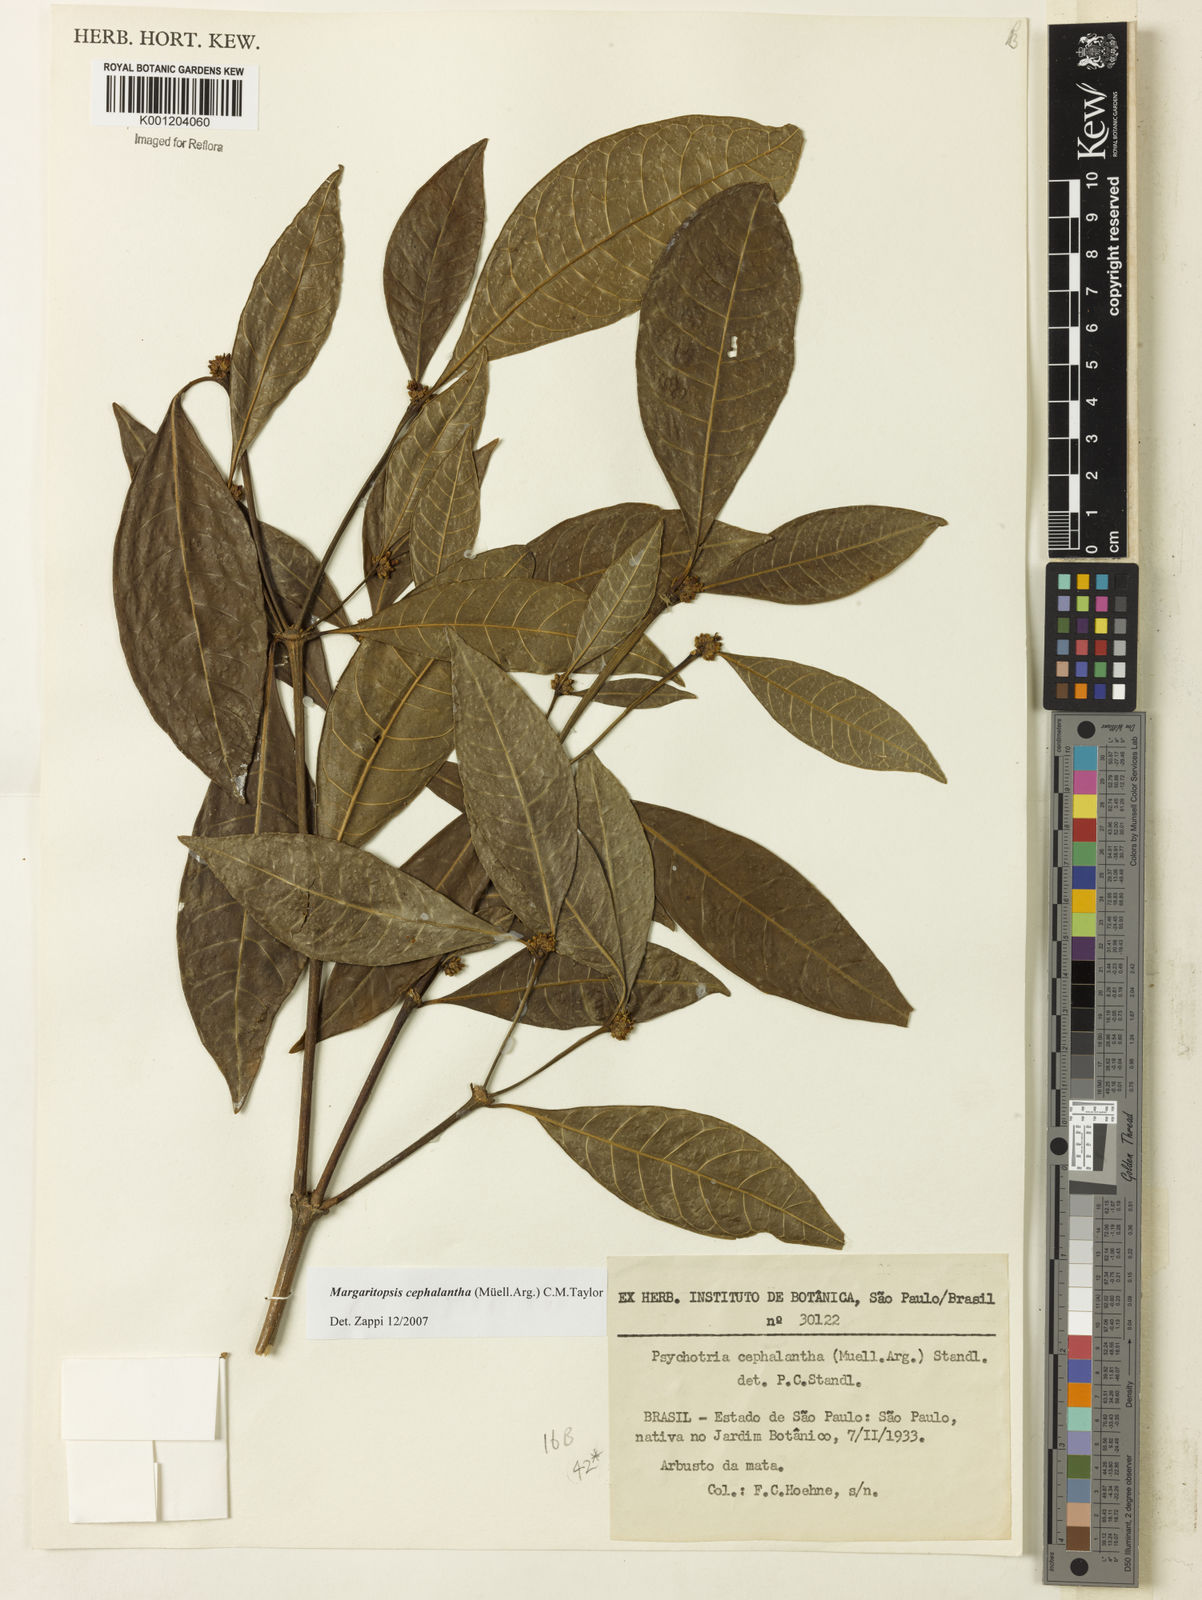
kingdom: Plantae
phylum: Tracheophyta
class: Magnoliopsida
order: Gentianales
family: Rubiaceae
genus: Eumachia
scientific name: Eumachia
